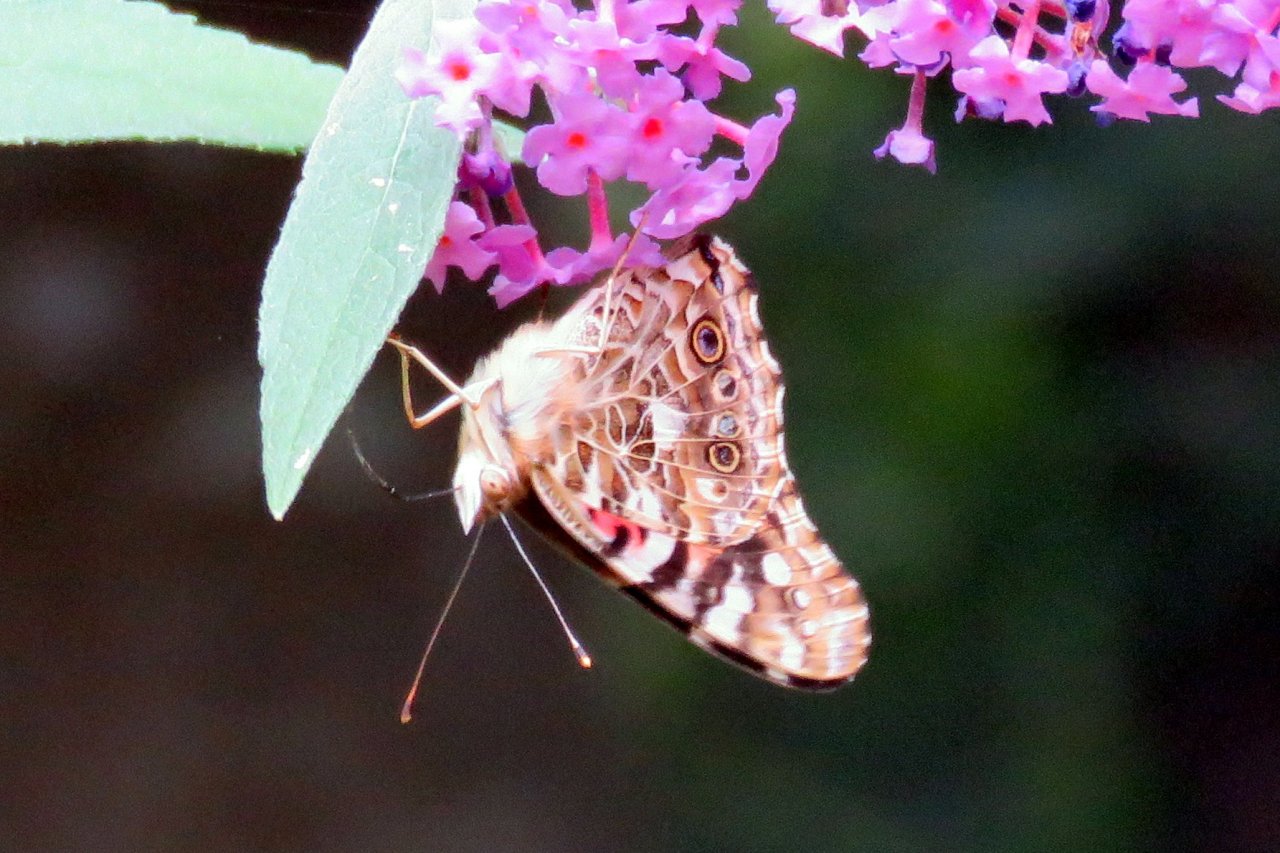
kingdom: Animalia
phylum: Arthropoda
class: Insecta
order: Lepidoptera
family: Nymphalidae
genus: Vanessa
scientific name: Vanessa cardui
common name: Painted Lady
